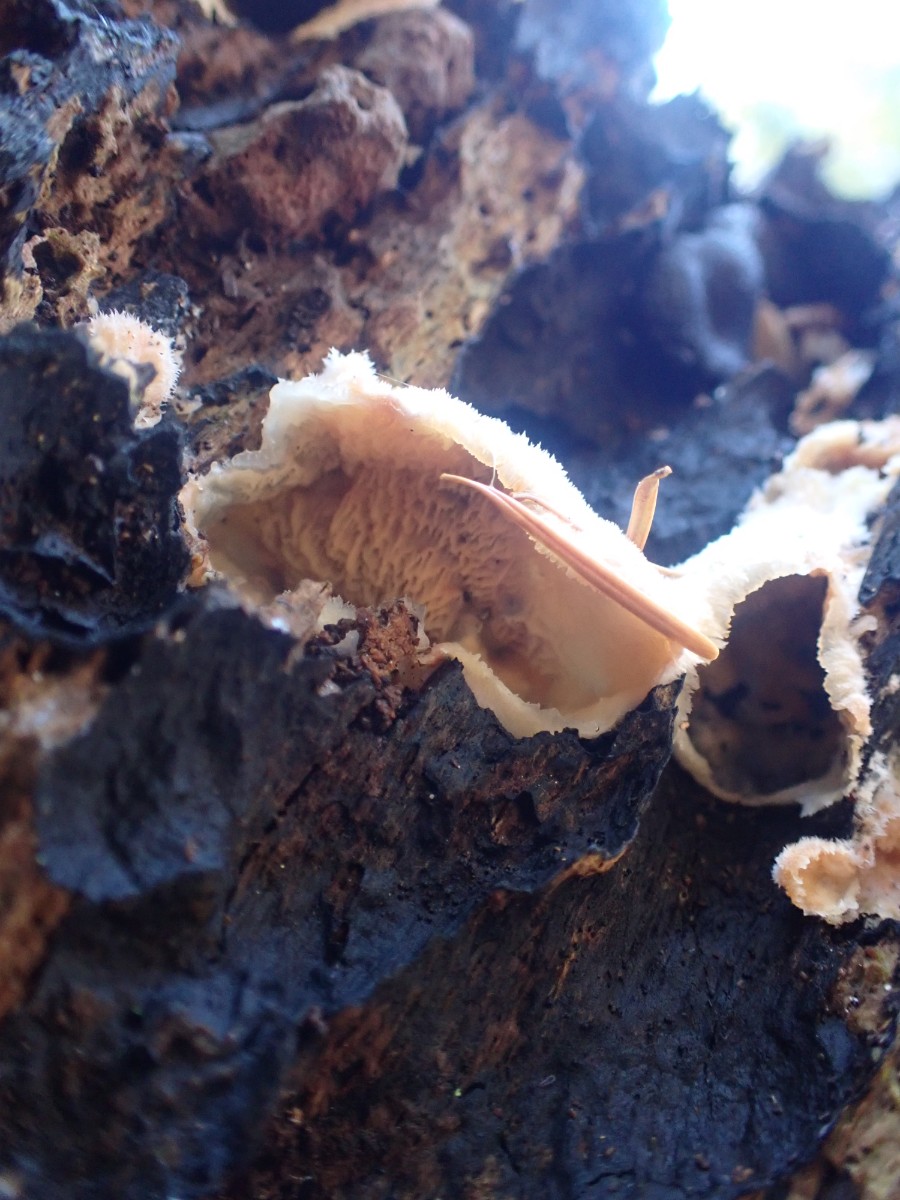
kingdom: Fungi
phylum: Basidiomycota
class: Agaricomycetes
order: Polyporales
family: Meruliaceae
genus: Phlebia
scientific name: Phlebia tremellosa
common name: bævrende åresvamp
